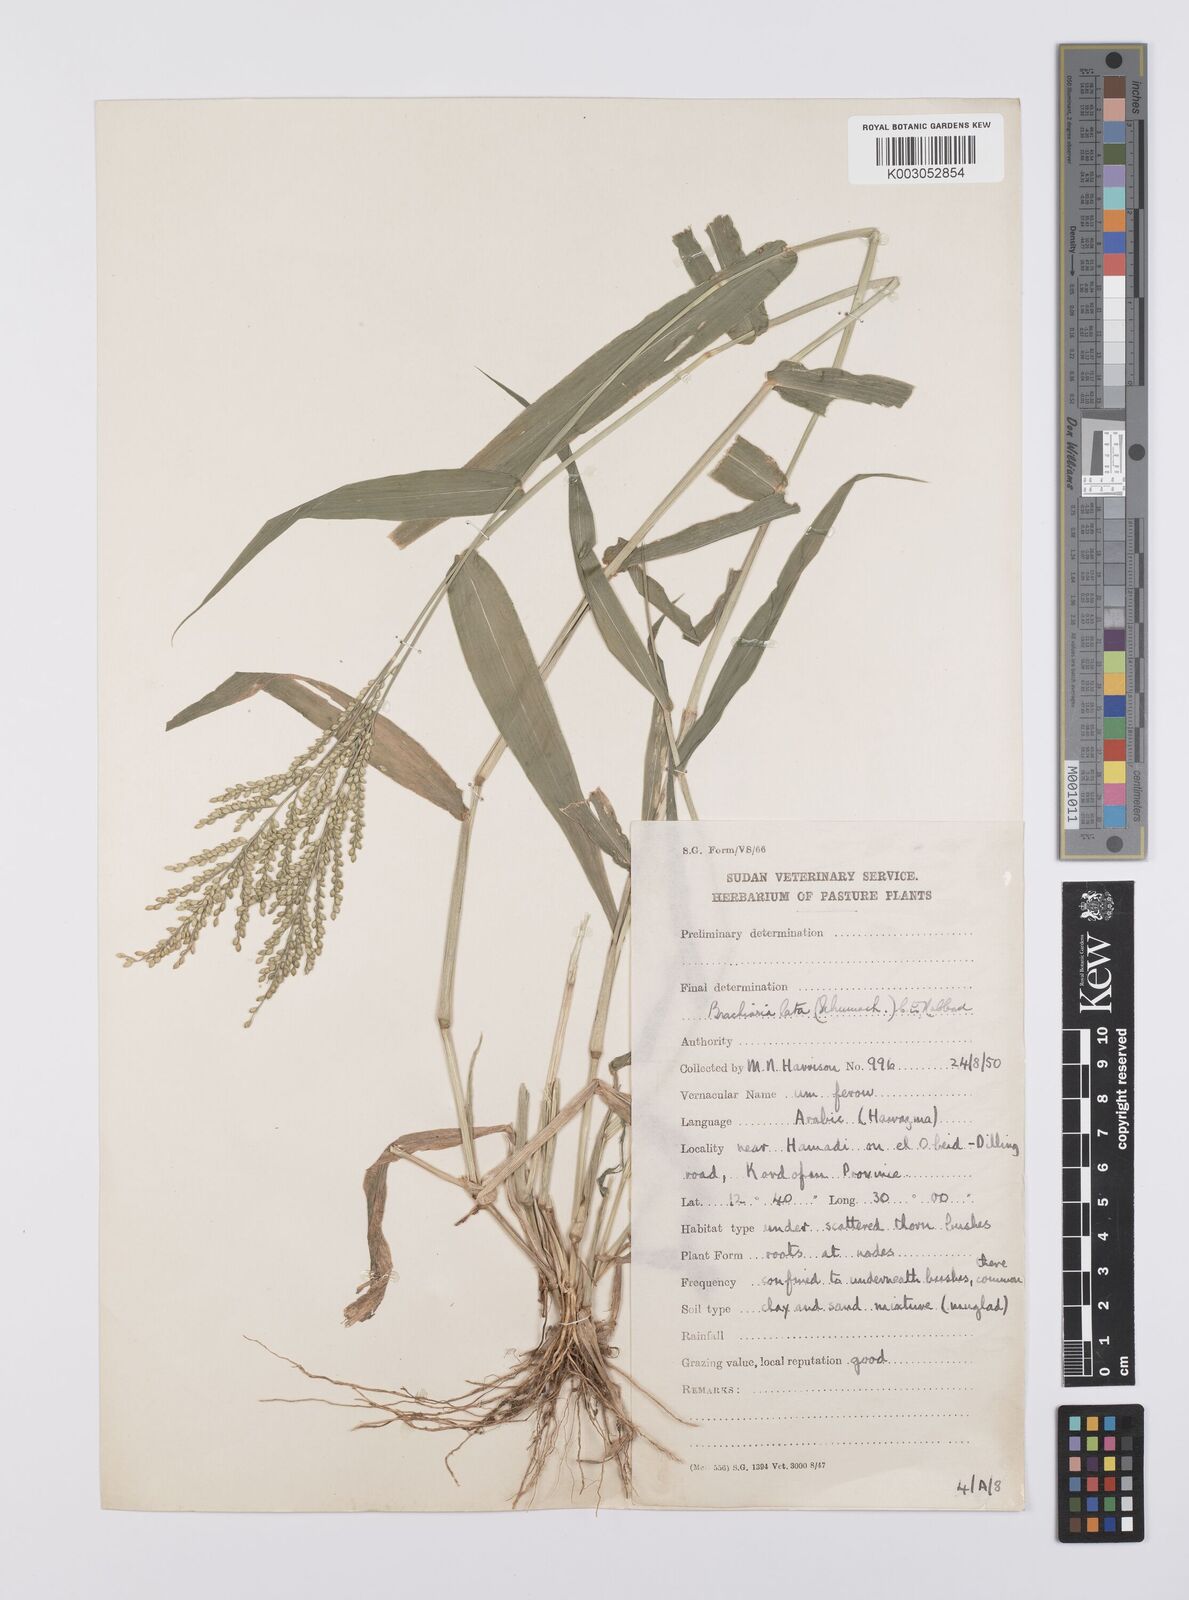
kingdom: Plantae
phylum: Tracheophyta
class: Liliopsida
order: Poales
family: Poaceae
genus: Urochloa
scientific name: Urochloa lata
